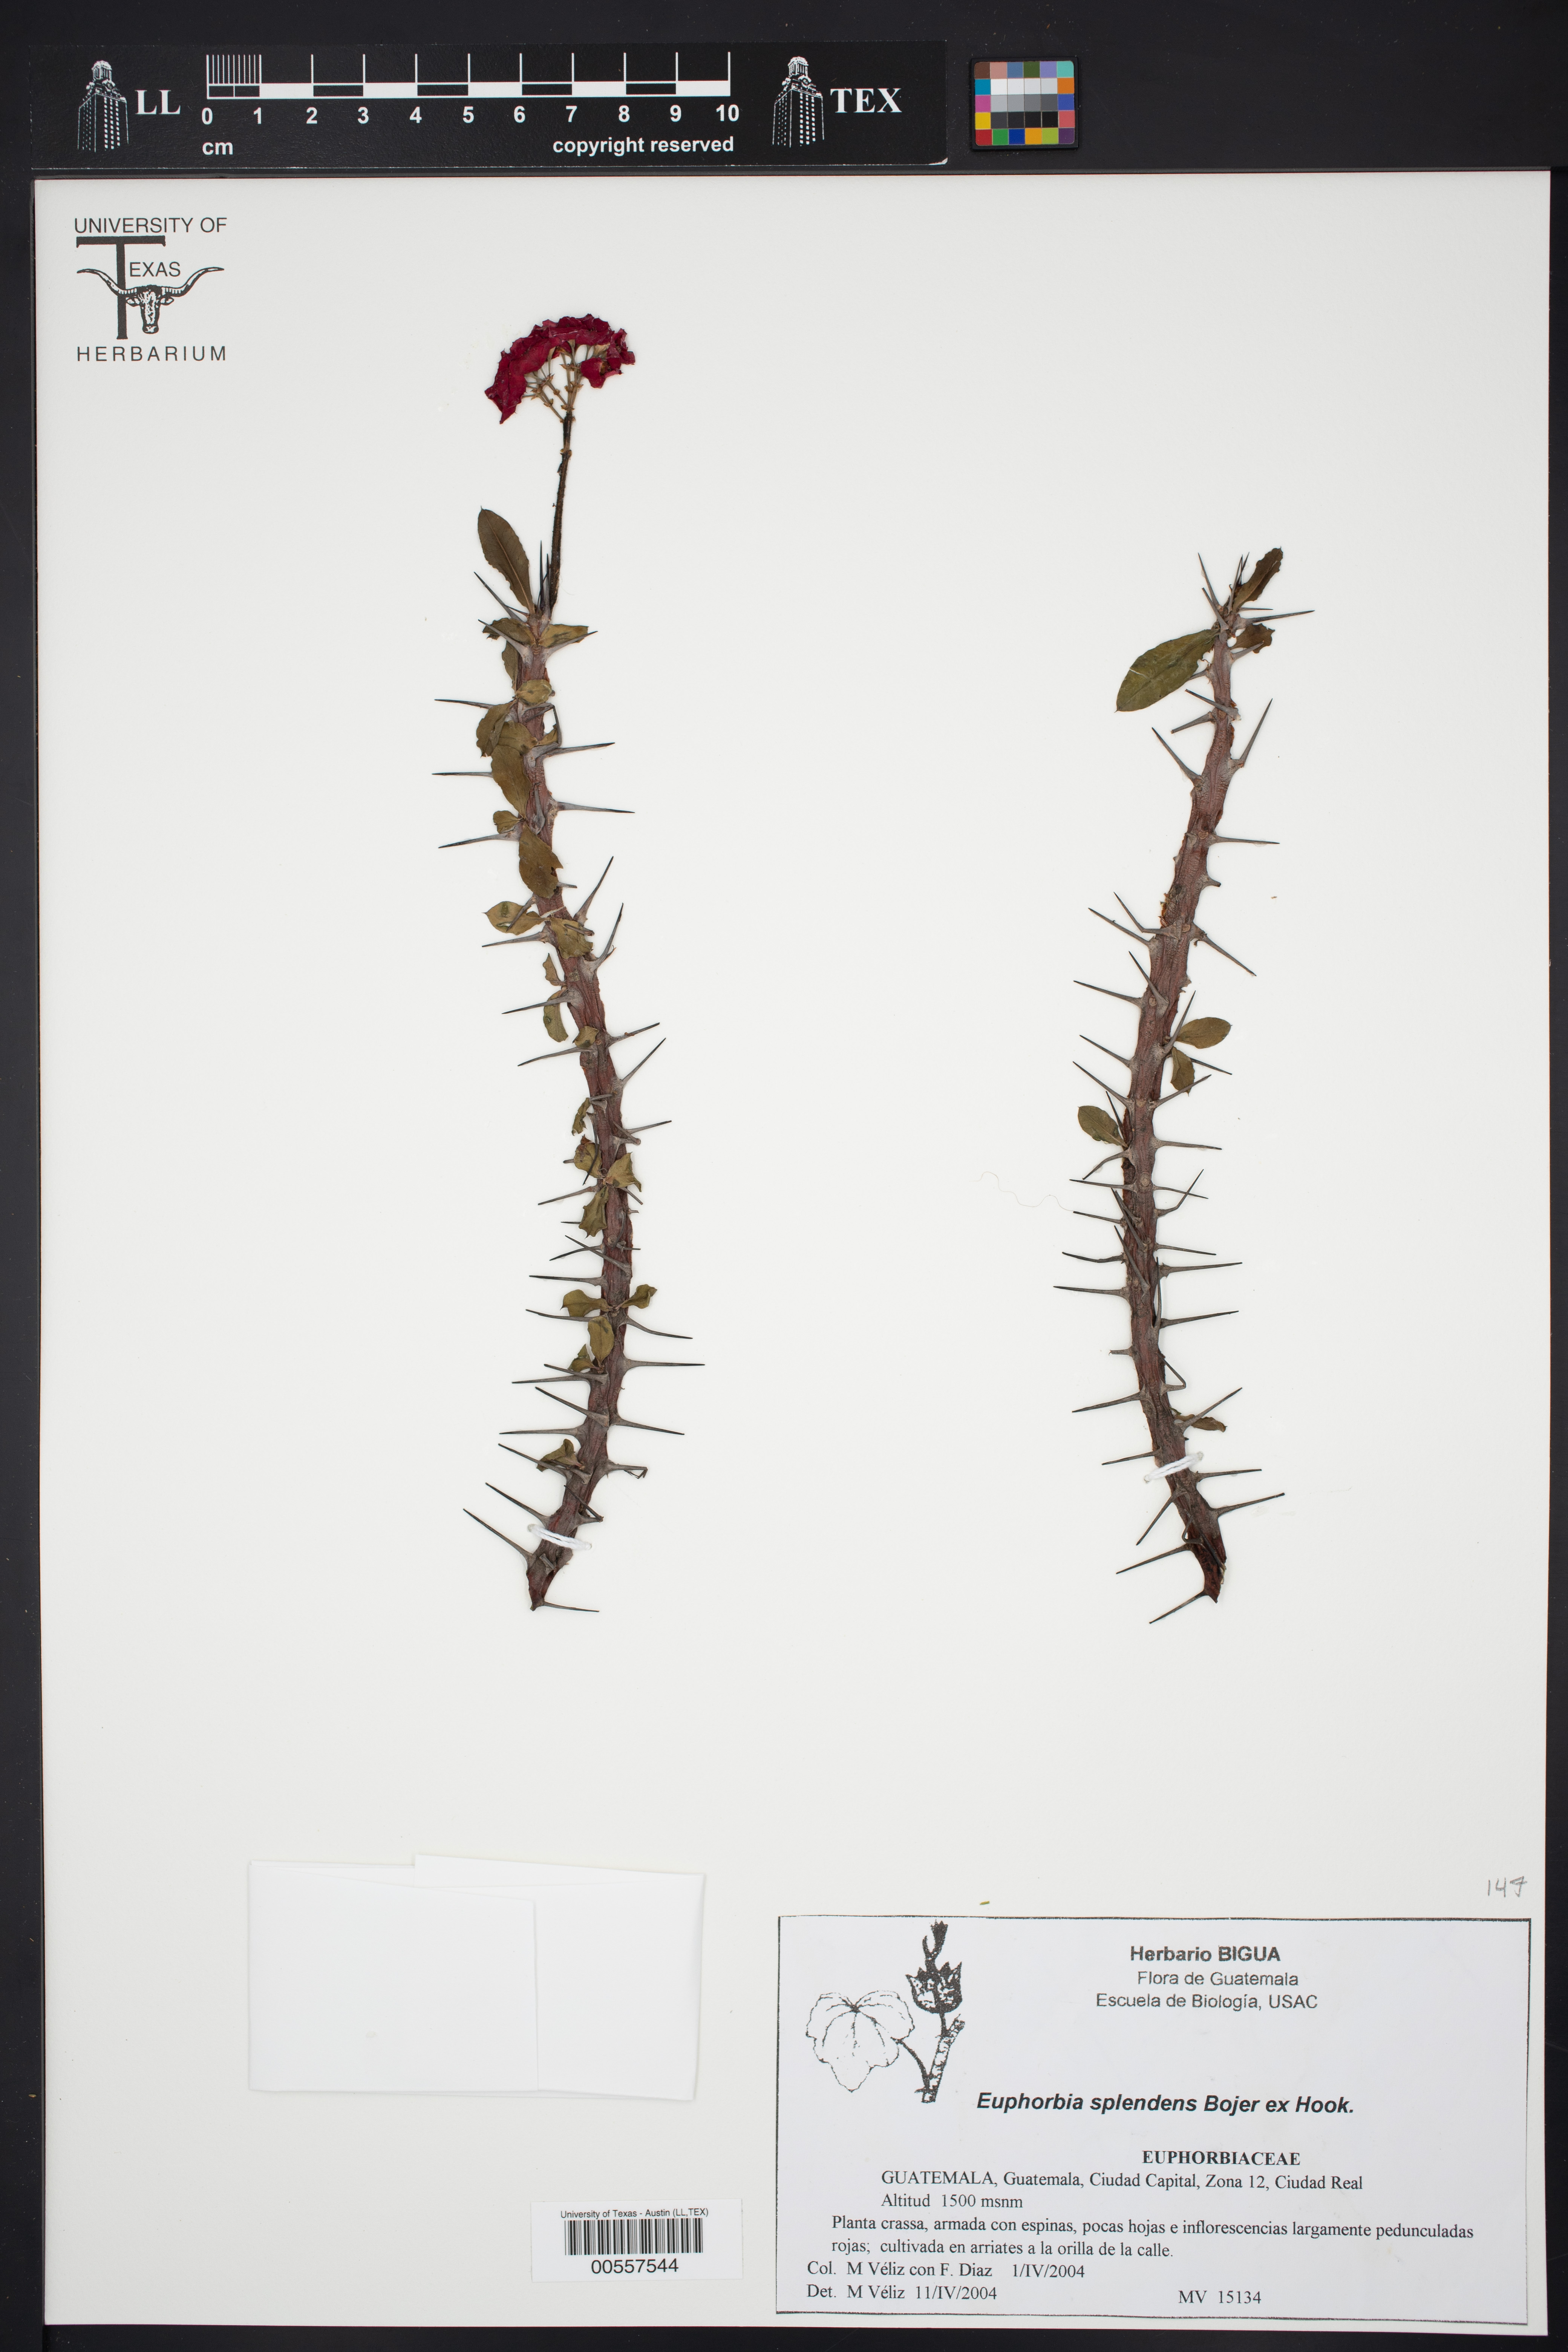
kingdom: Plantae
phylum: Tracheophyta
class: Magnoliopsida
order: Malpighiales
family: Euphorbiaceae
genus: Euphorbia
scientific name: Euphorbia splendens
